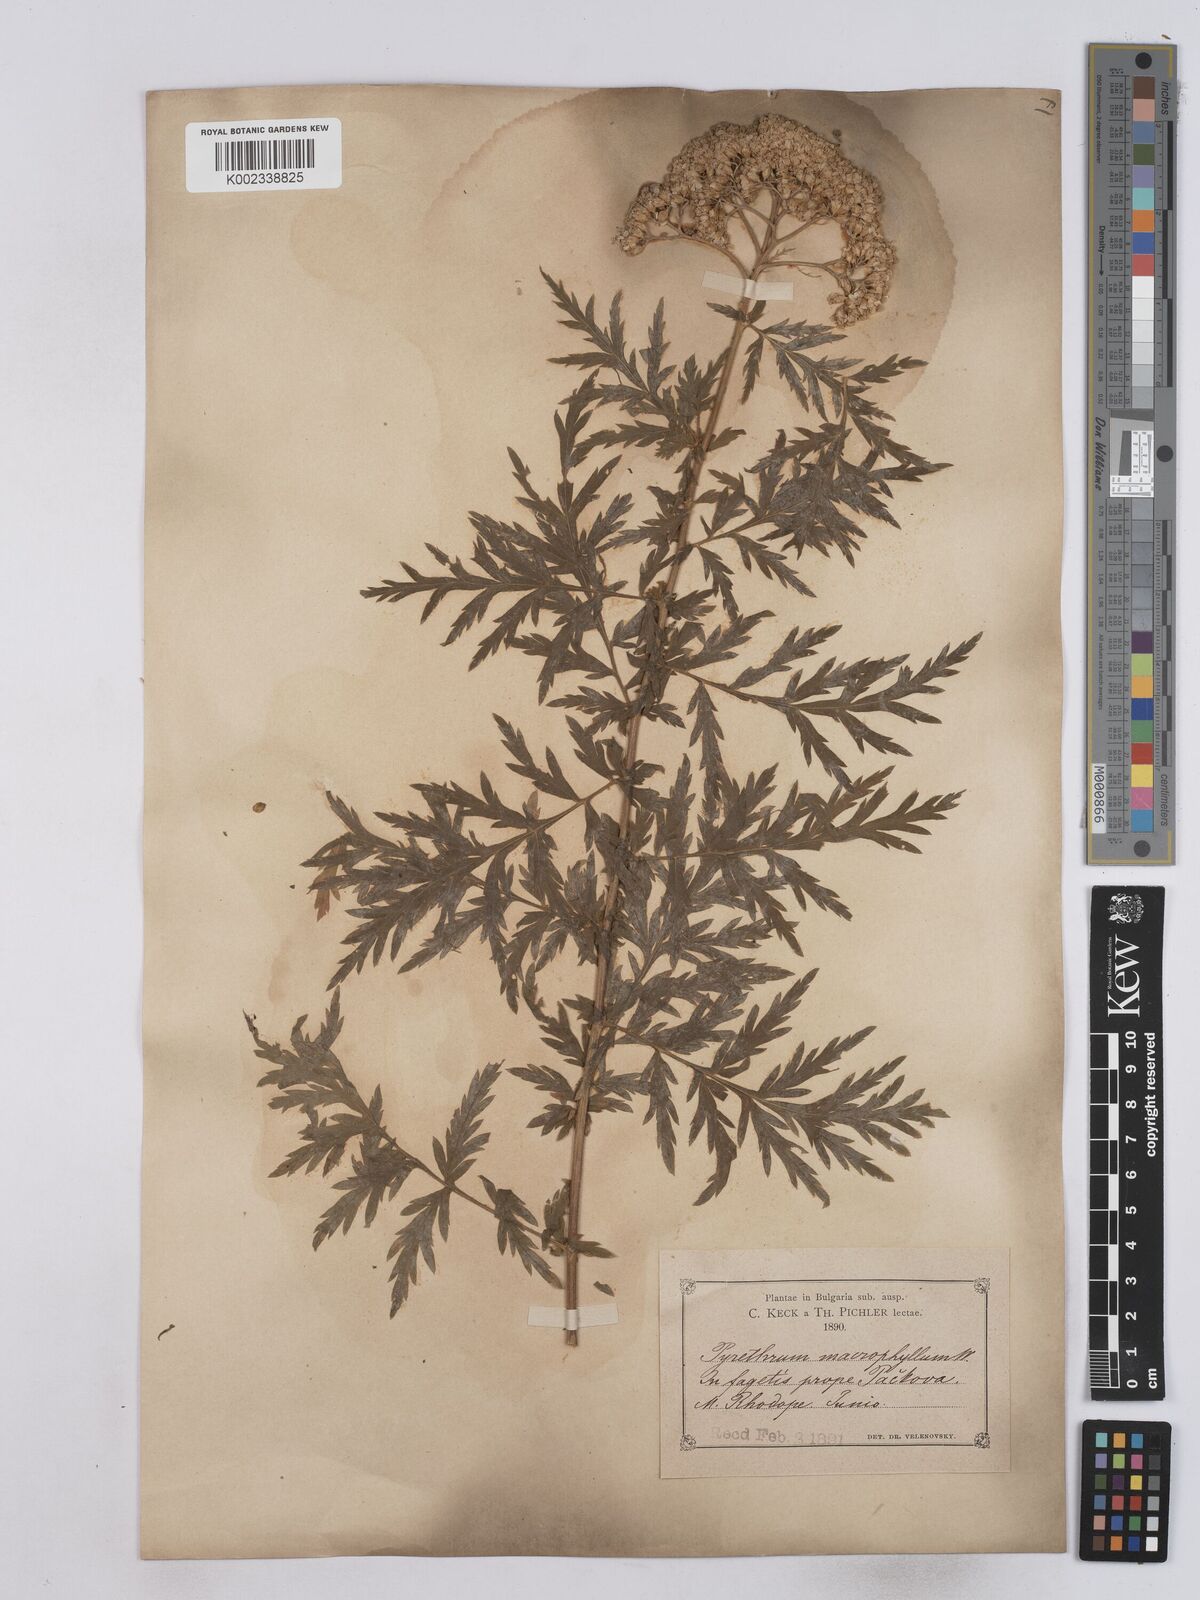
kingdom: Plantae
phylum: Tracheophyta
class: Magnoliopsida
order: Asterales
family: Asteraceae
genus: Tanacetum
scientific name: Tanacetum macrophyllum
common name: Rayed tansy
